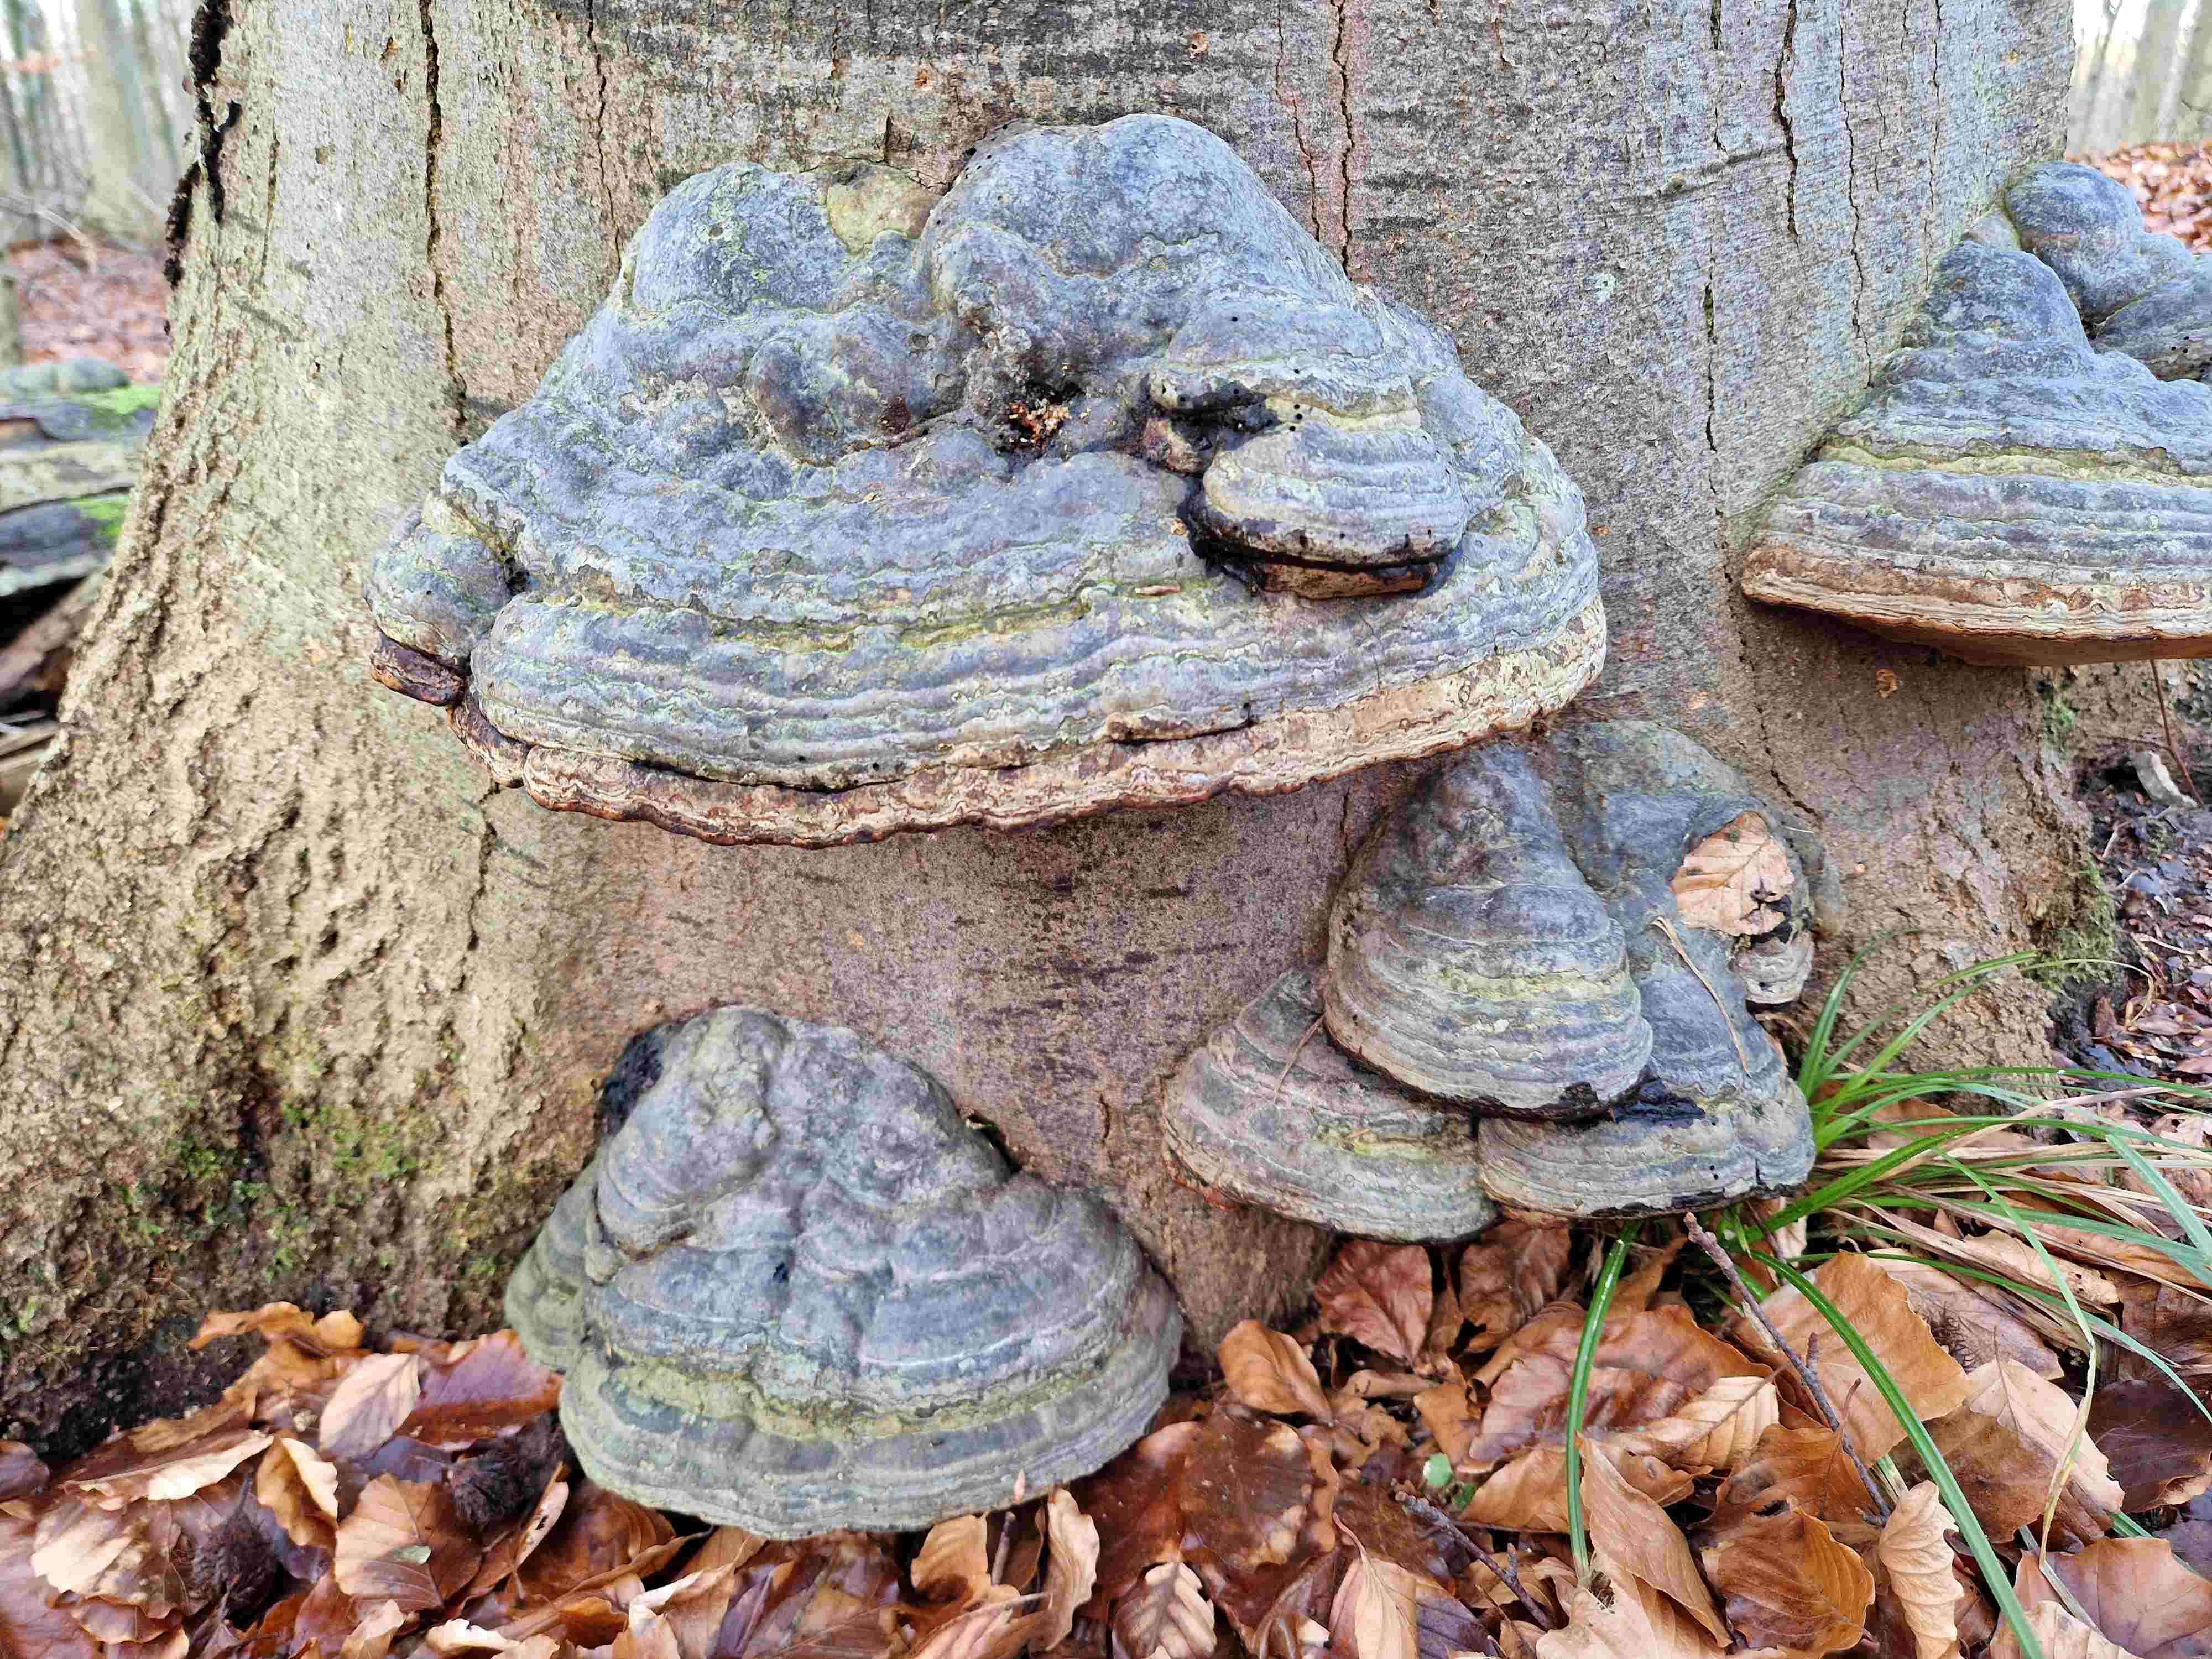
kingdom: Fungi
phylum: Basidiomycota
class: Agaricomycetes
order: Polyporales
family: Polyporaceae
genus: Fomes
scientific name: Fomes fomentarius
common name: tøndersvamp
